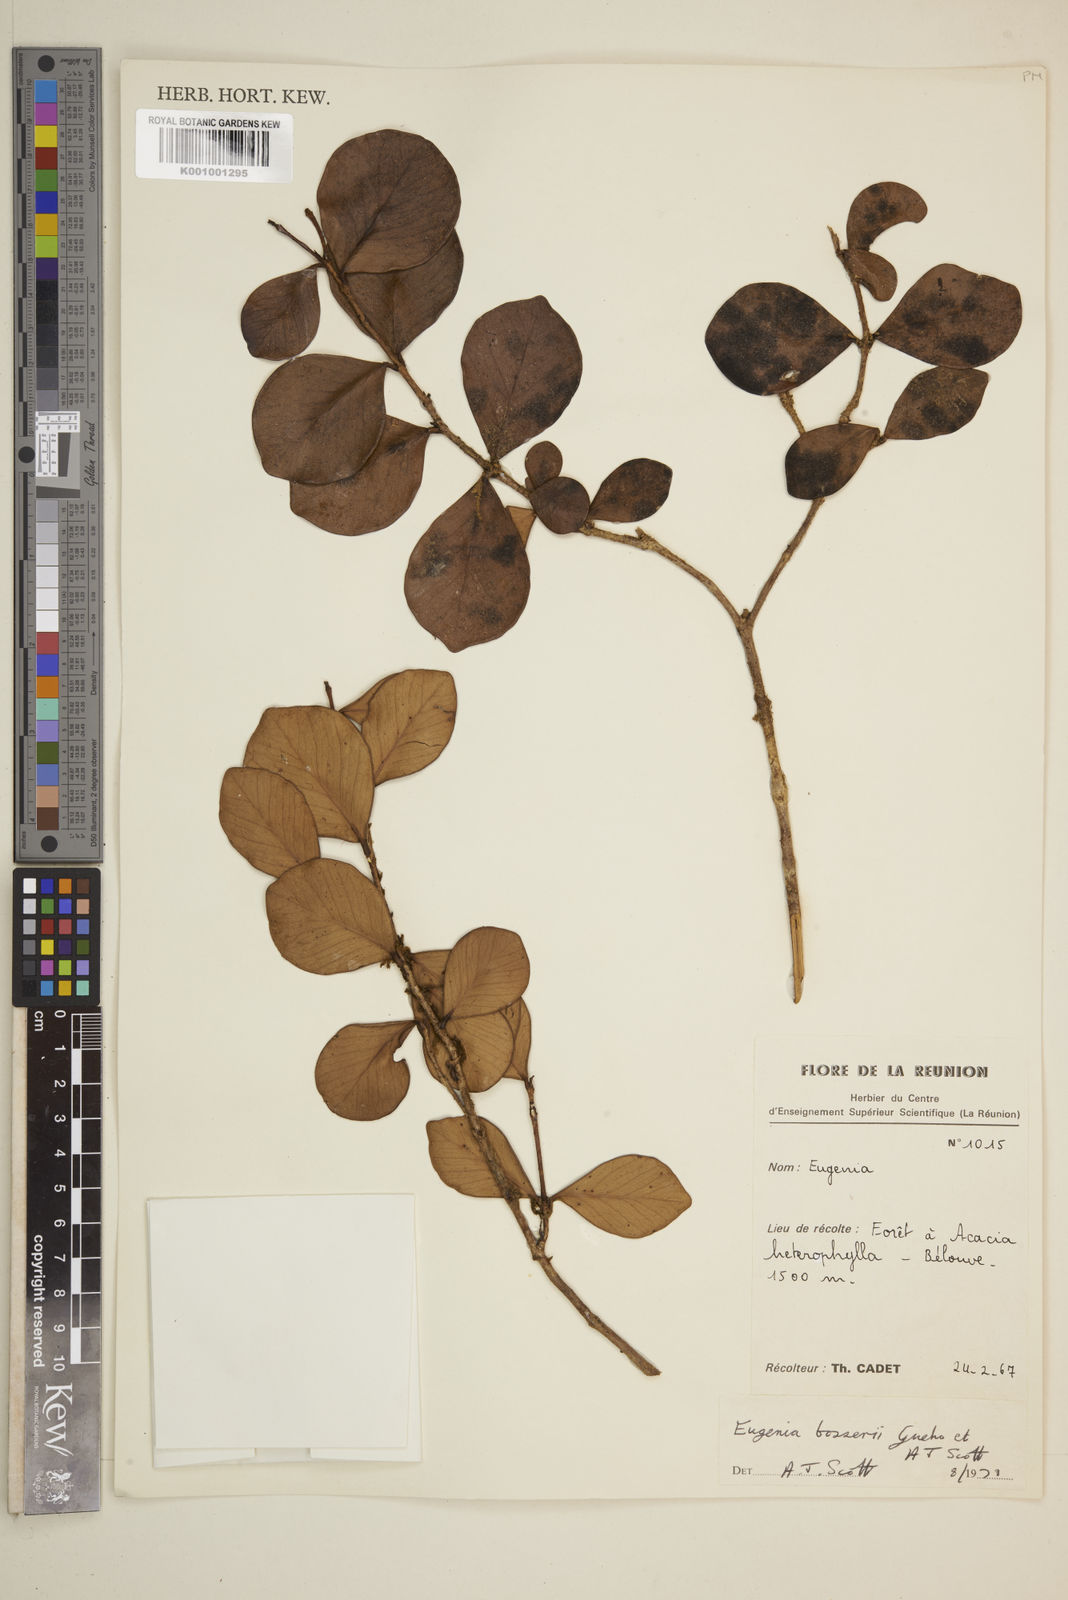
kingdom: Plantae
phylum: Tracheophyta
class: Magnoliopsida
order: Myrtales
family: Myrtaceae
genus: Eugenia
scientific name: Eugenia
